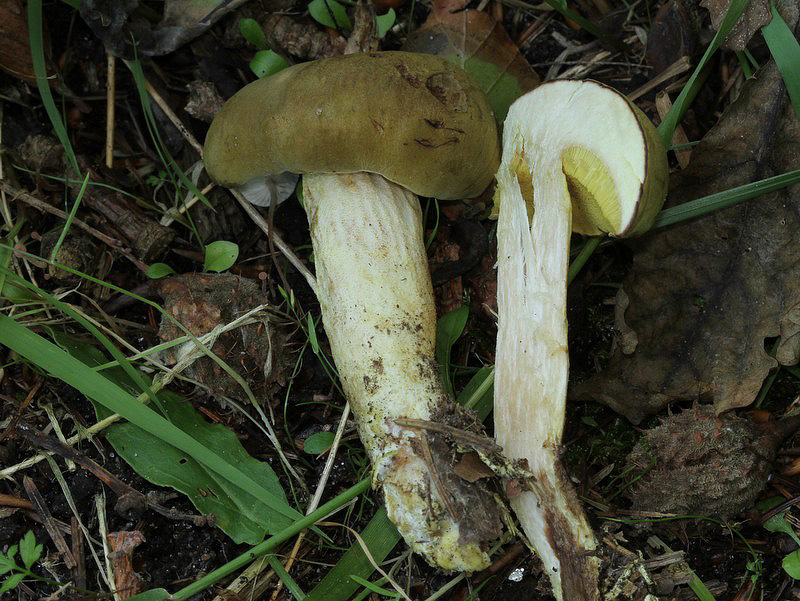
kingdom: Fungi
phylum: Basidiomycota
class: Agaricomycetes
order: Boletales
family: Boletaceae
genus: Xerocomus
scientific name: Xerocomus ferrugineus
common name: vaskeskinds-rørhat
